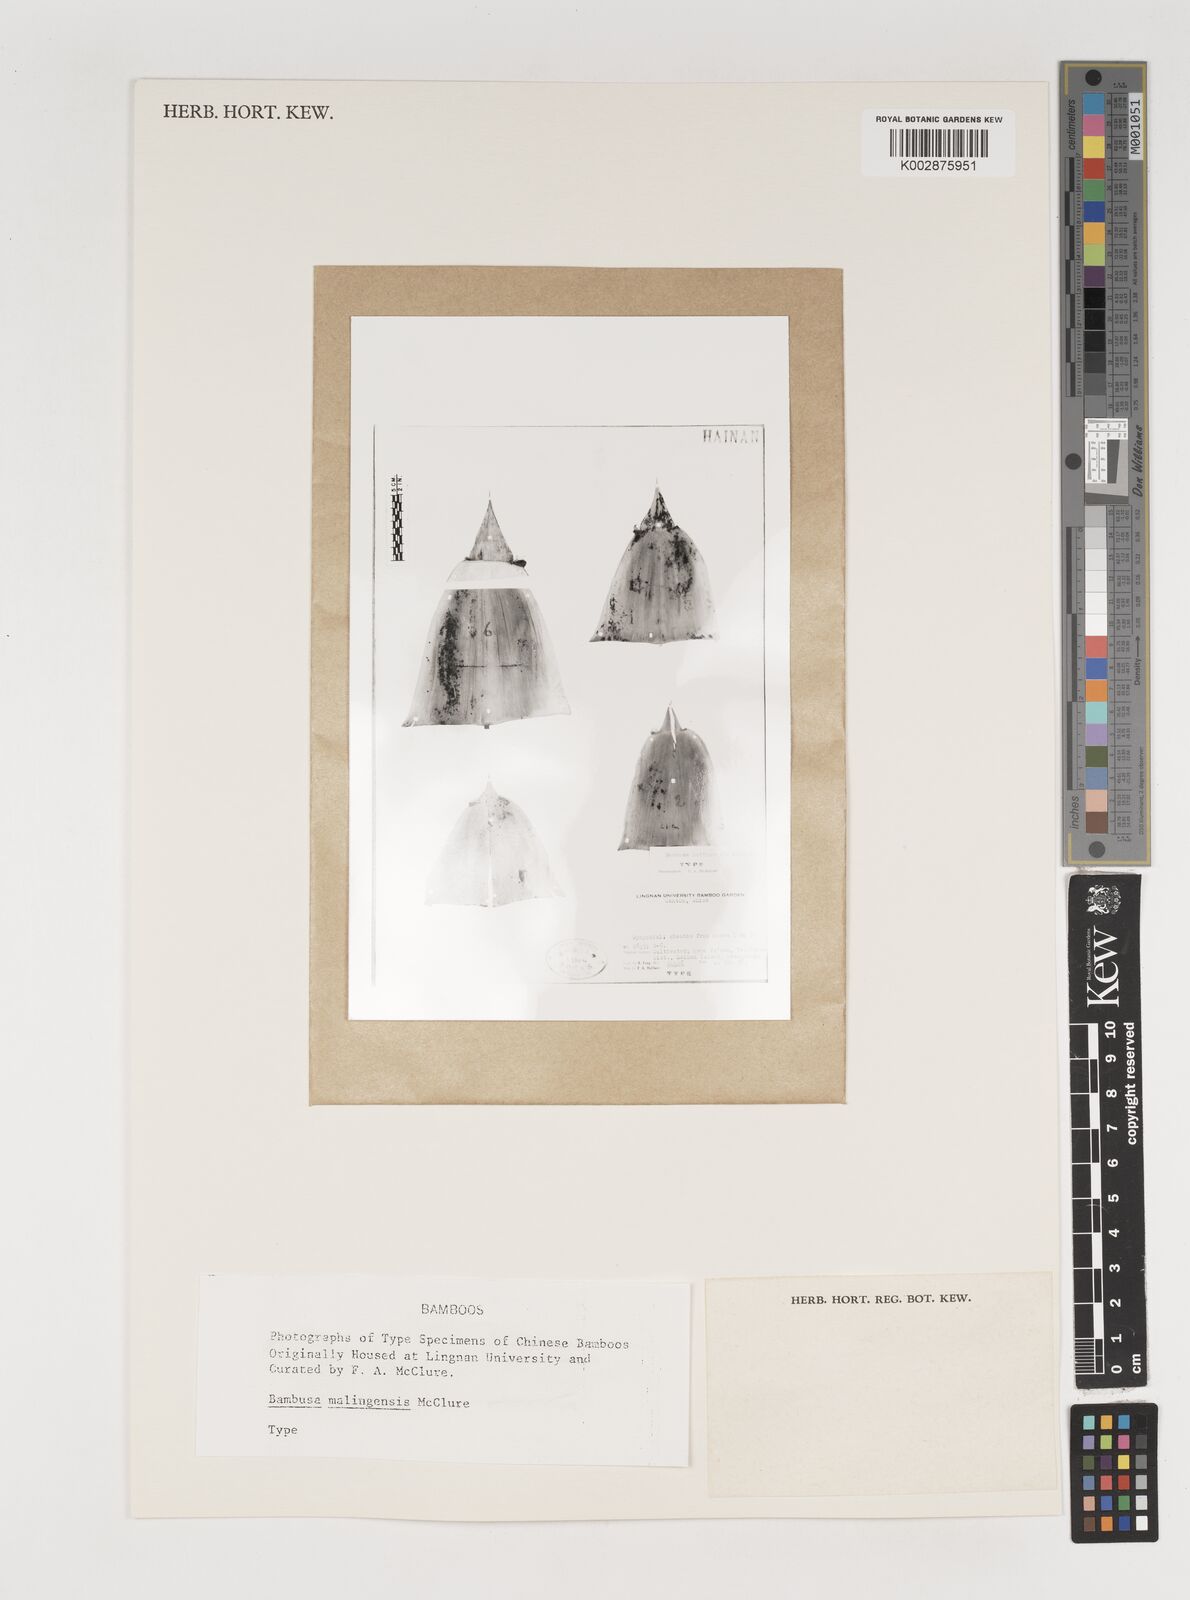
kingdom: Plantae
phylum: Tracheophyta
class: Liliopsida
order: Poales
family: Poaceae
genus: Bambusa
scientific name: Bambusa malingensis
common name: Maling bamboo
